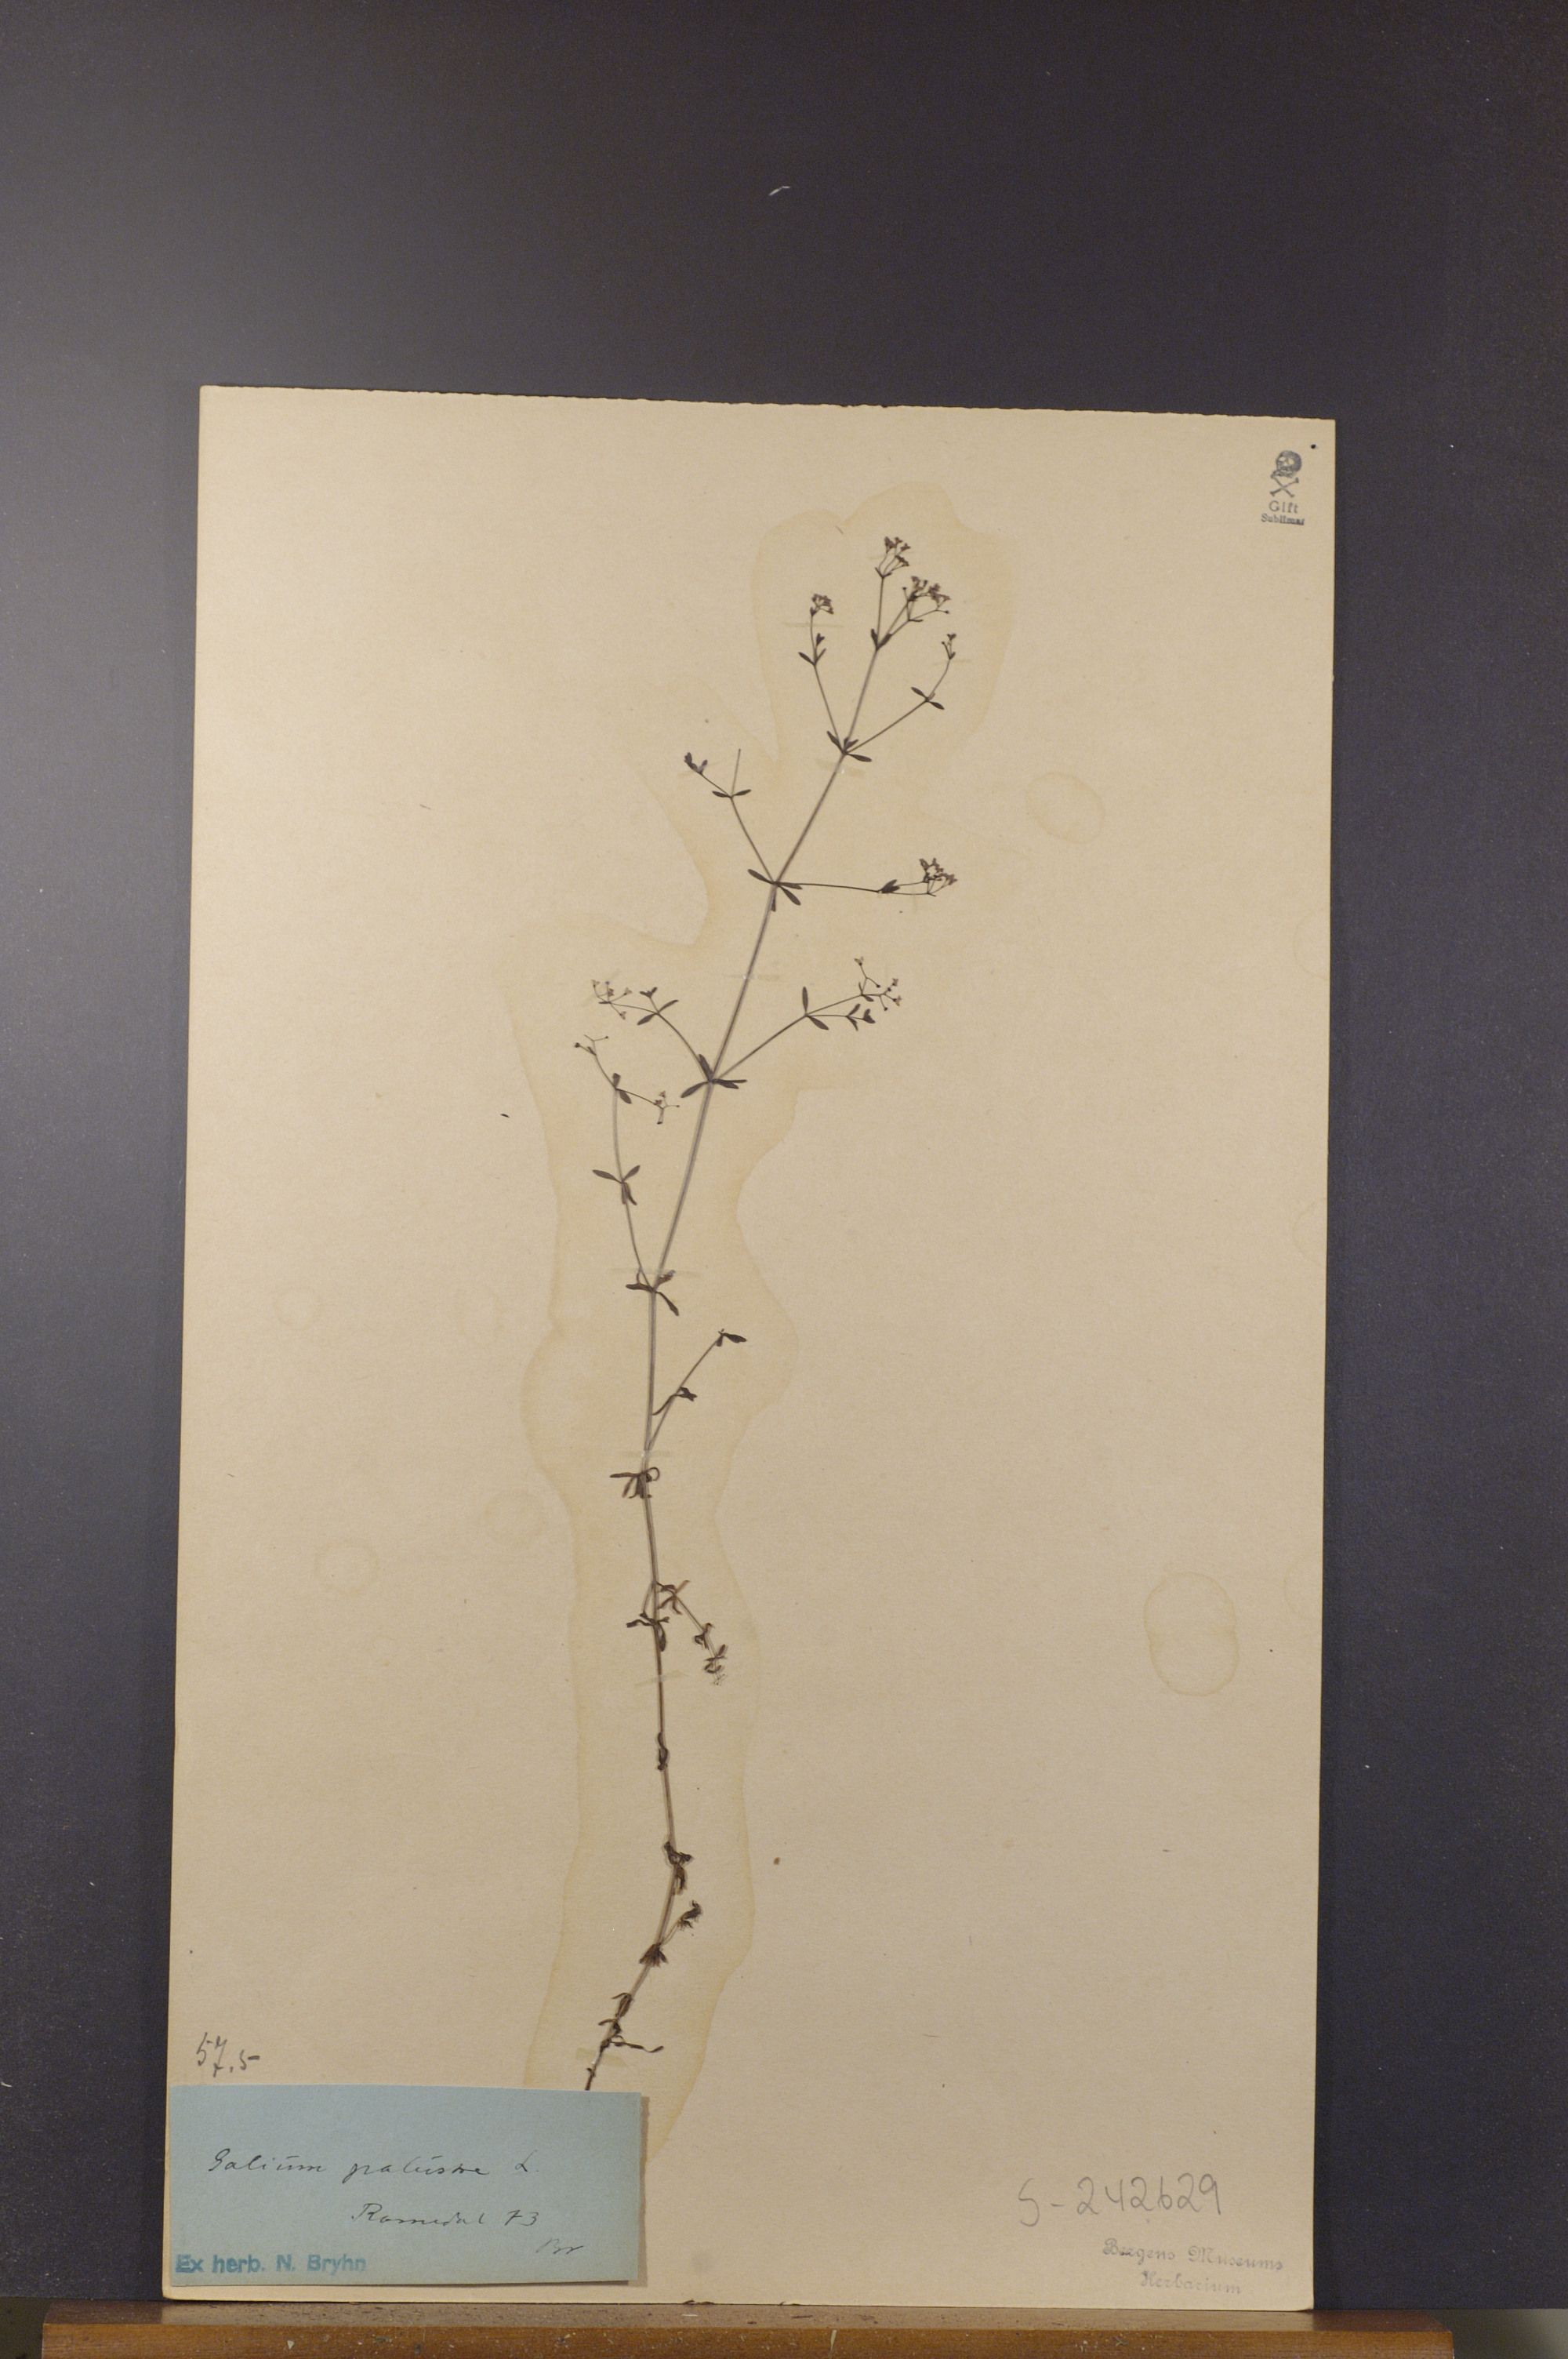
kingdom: Plantae
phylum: Tracheophyta
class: Magnoliopsida
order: Gentianales
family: Rubiaceae
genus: Galium
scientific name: Galium palustre
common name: Common marsh-bedstraw
